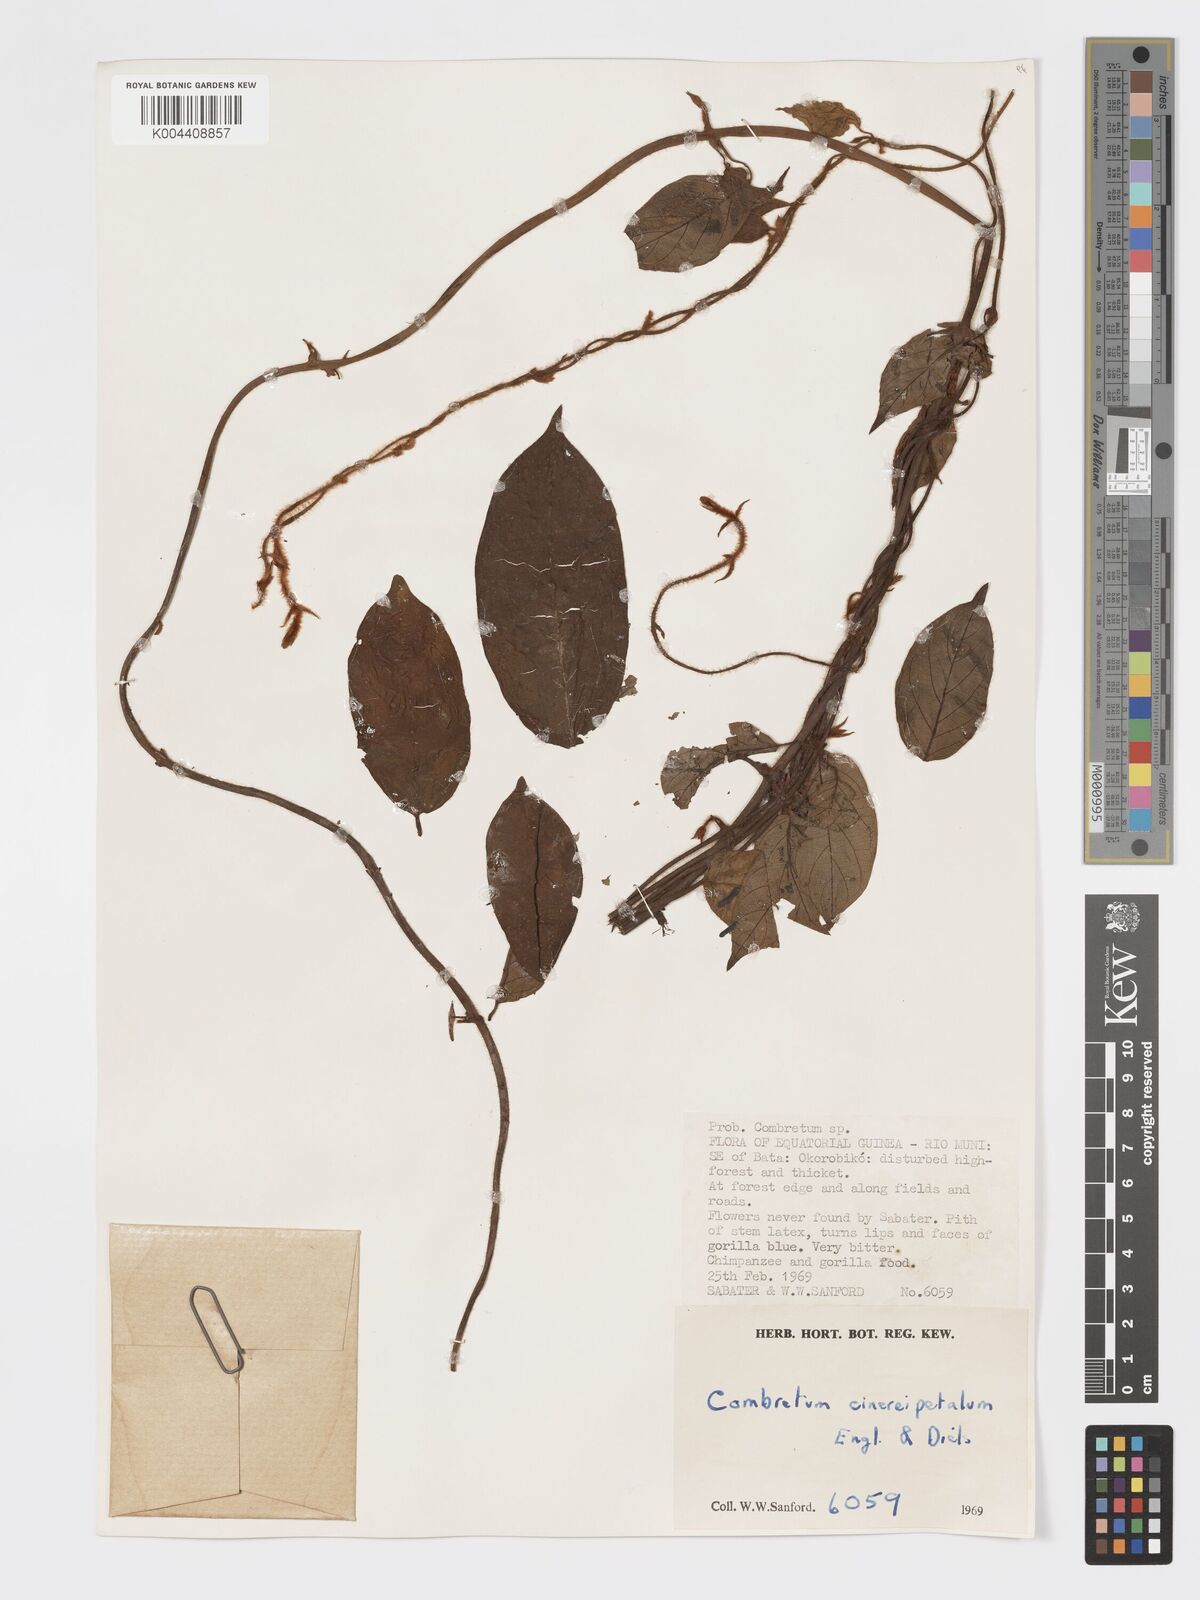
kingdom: Plantae
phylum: Tracheophyta
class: Magnoliopsida
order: Myrtales
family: Combretaceae
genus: Combretum
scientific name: Combretum cinereopetalum
